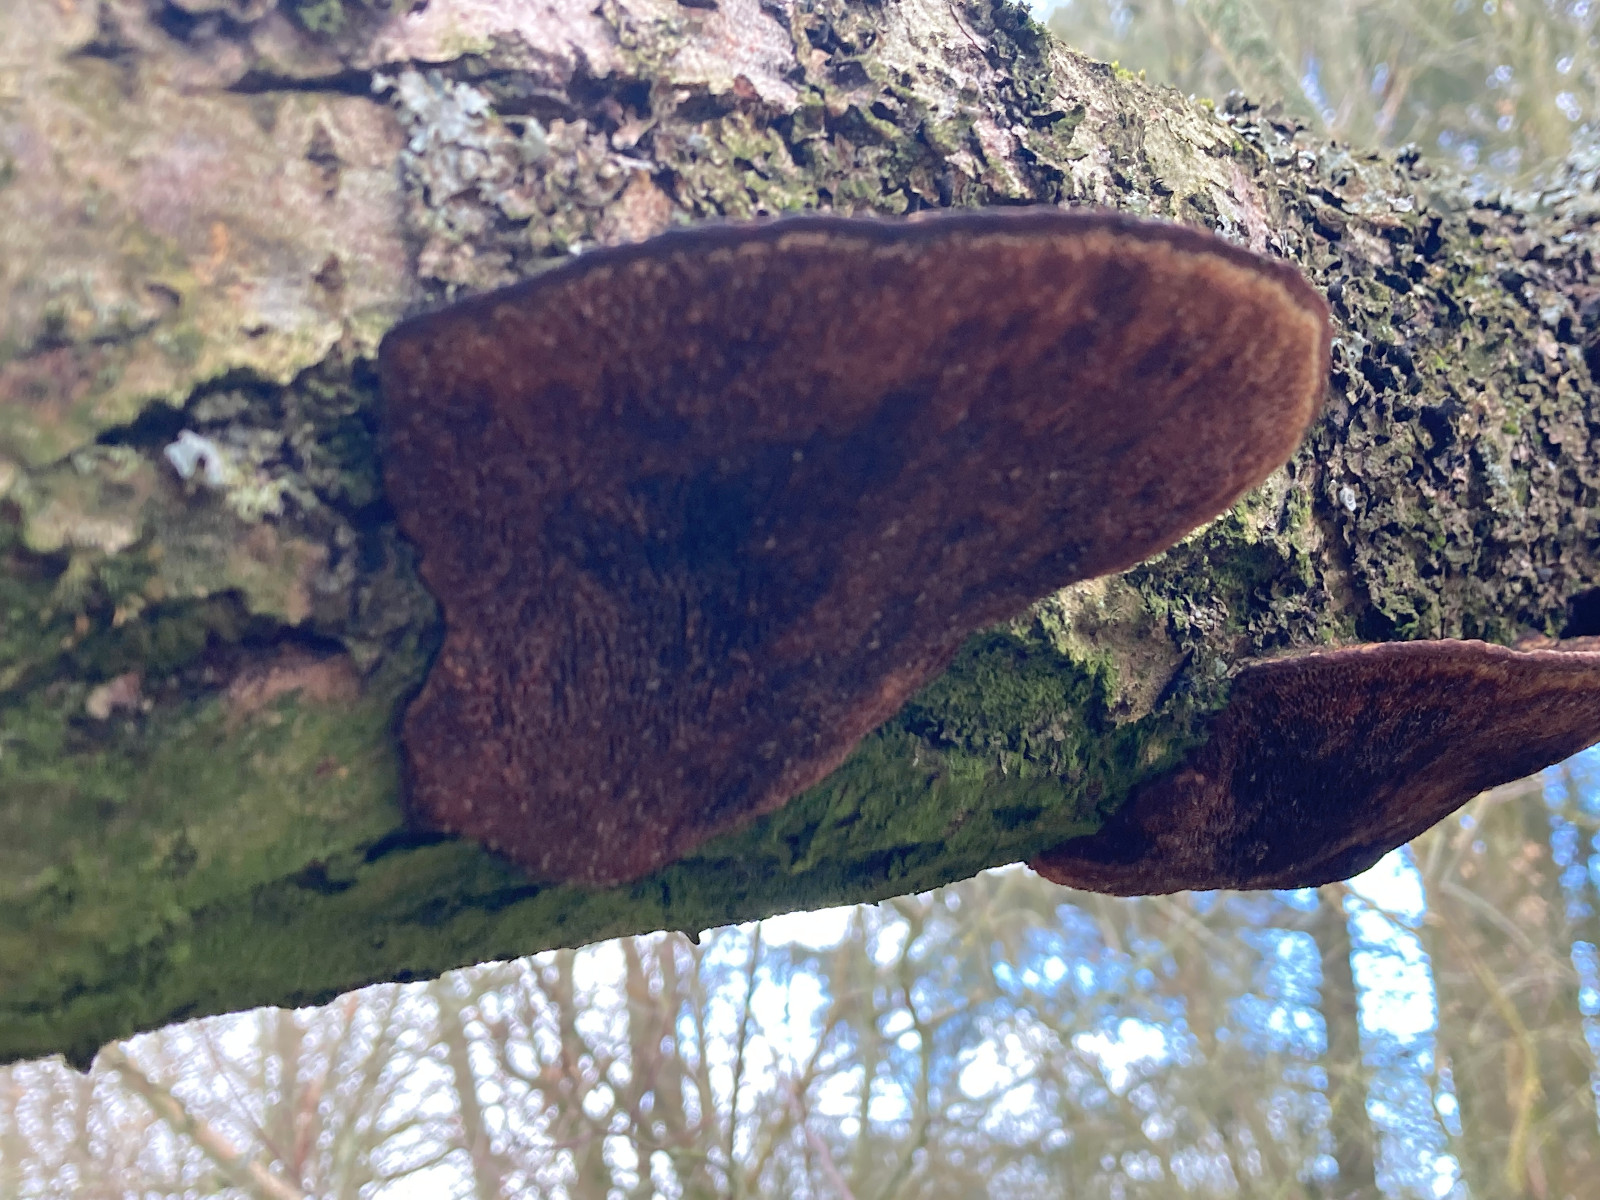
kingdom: Fungi
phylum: Basidiomycota
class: Agaricomycetes
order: Polyporales
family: Polyporaceae
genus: Daedaleopsis
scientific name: Daedaleopsis confragosa
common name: rødmende læderporesvamp
